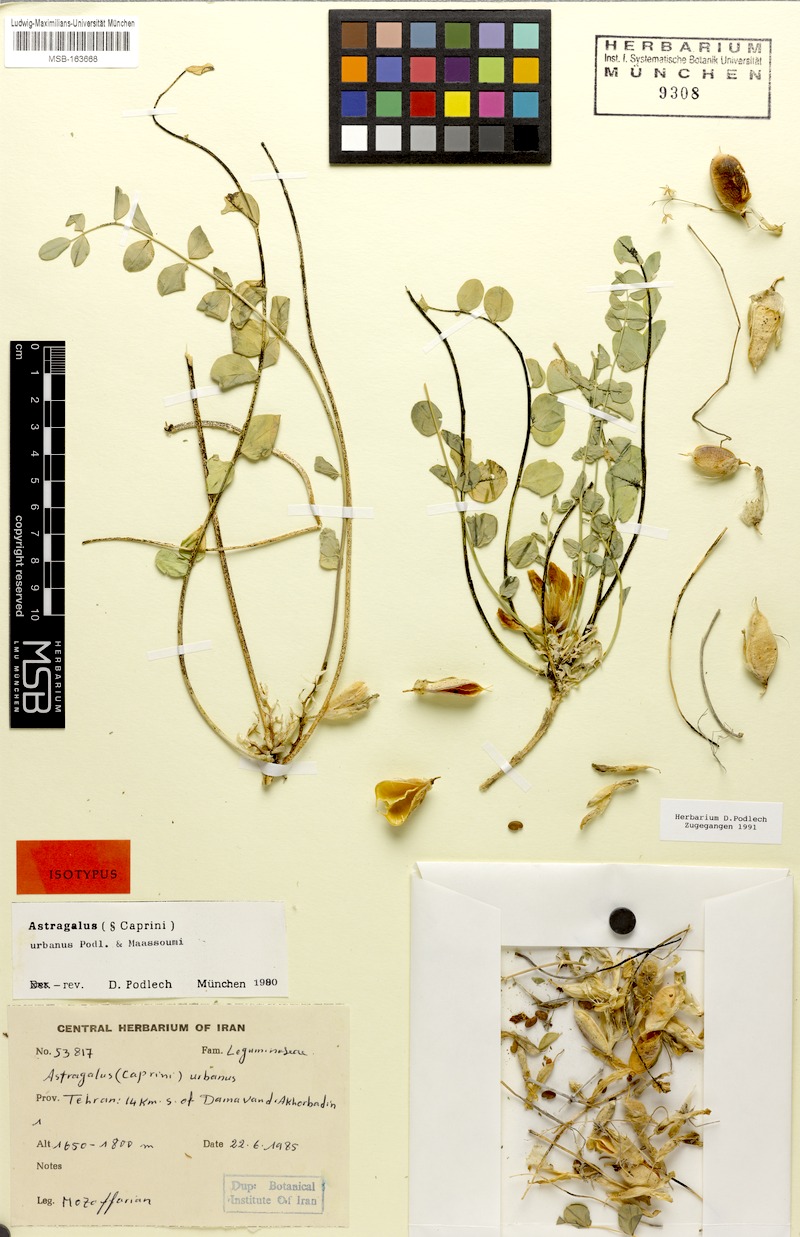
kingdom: Plantae
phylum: Tracheophyta
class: Magnoliopsida
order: Fabales
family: Fabaceae
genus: Astragalus
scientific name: Astragalus urbanus
